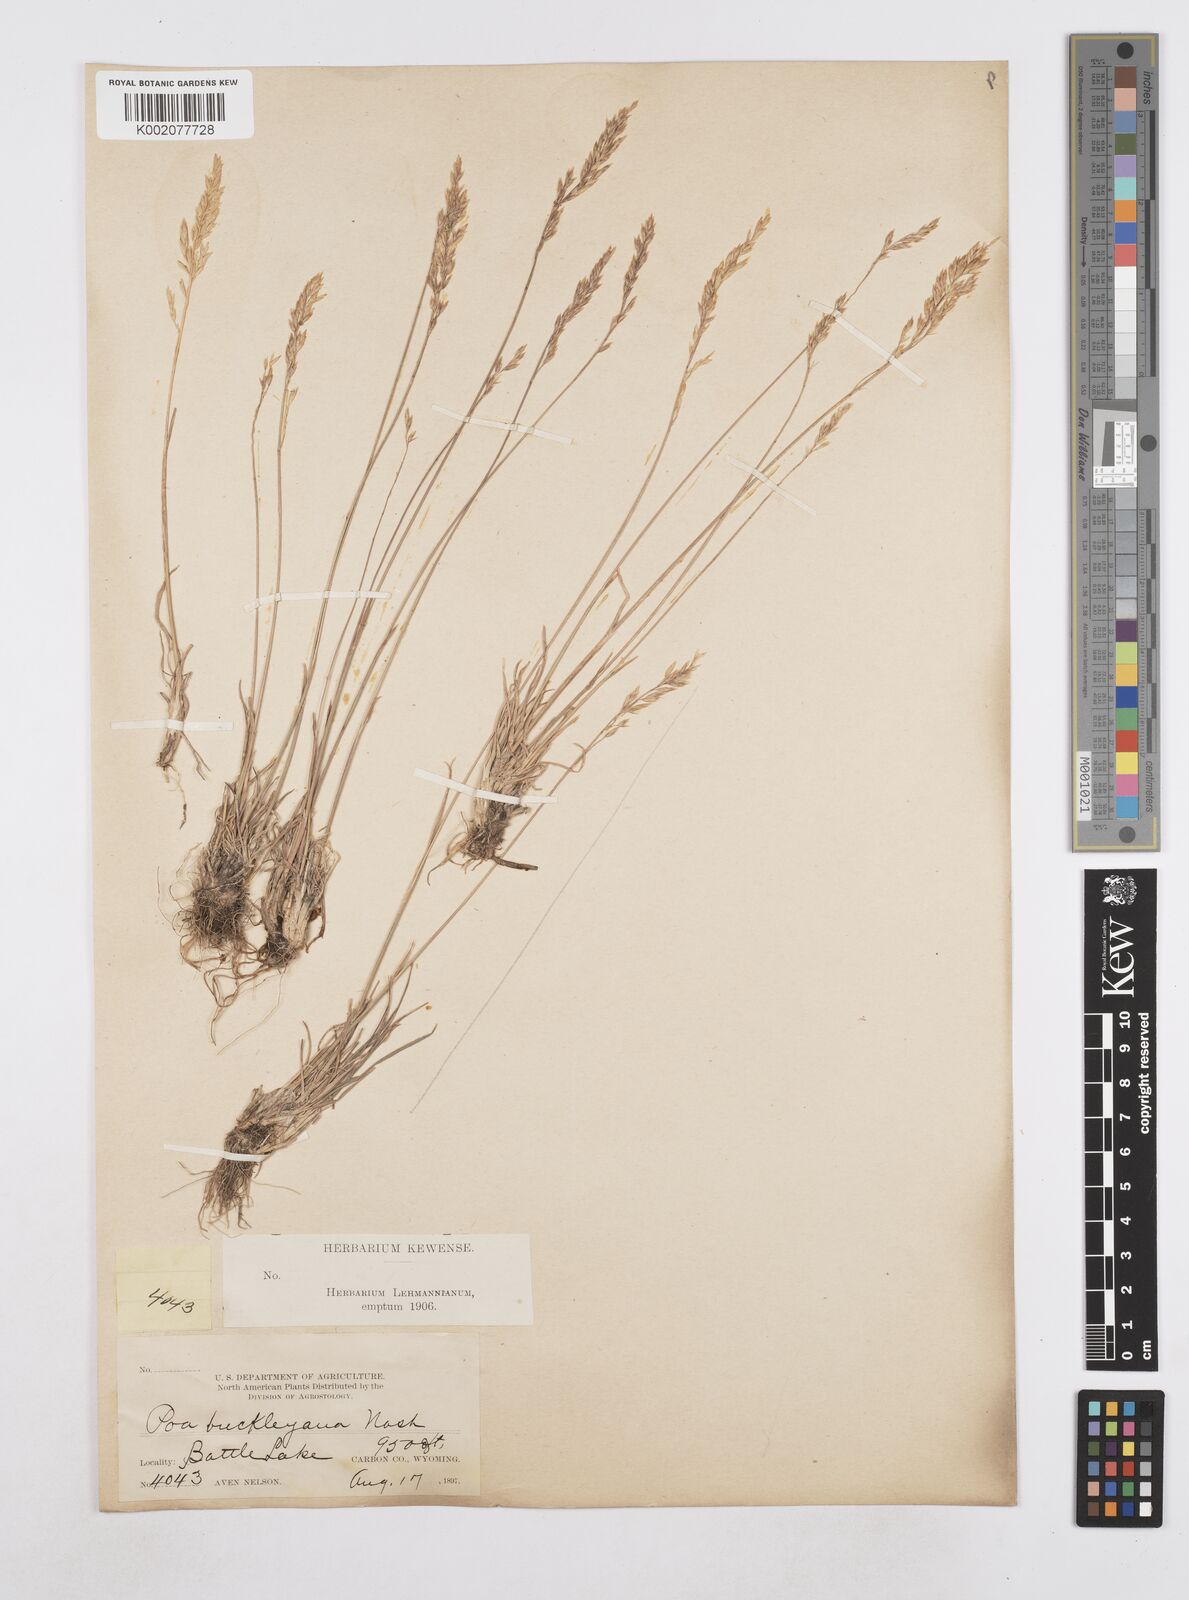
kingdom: Plantae
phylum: Tracheophyta
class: Liliopsida
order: Poales
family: Poaceae
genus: Poa
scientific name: Poa secunda
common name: Sandberg bluegrass
